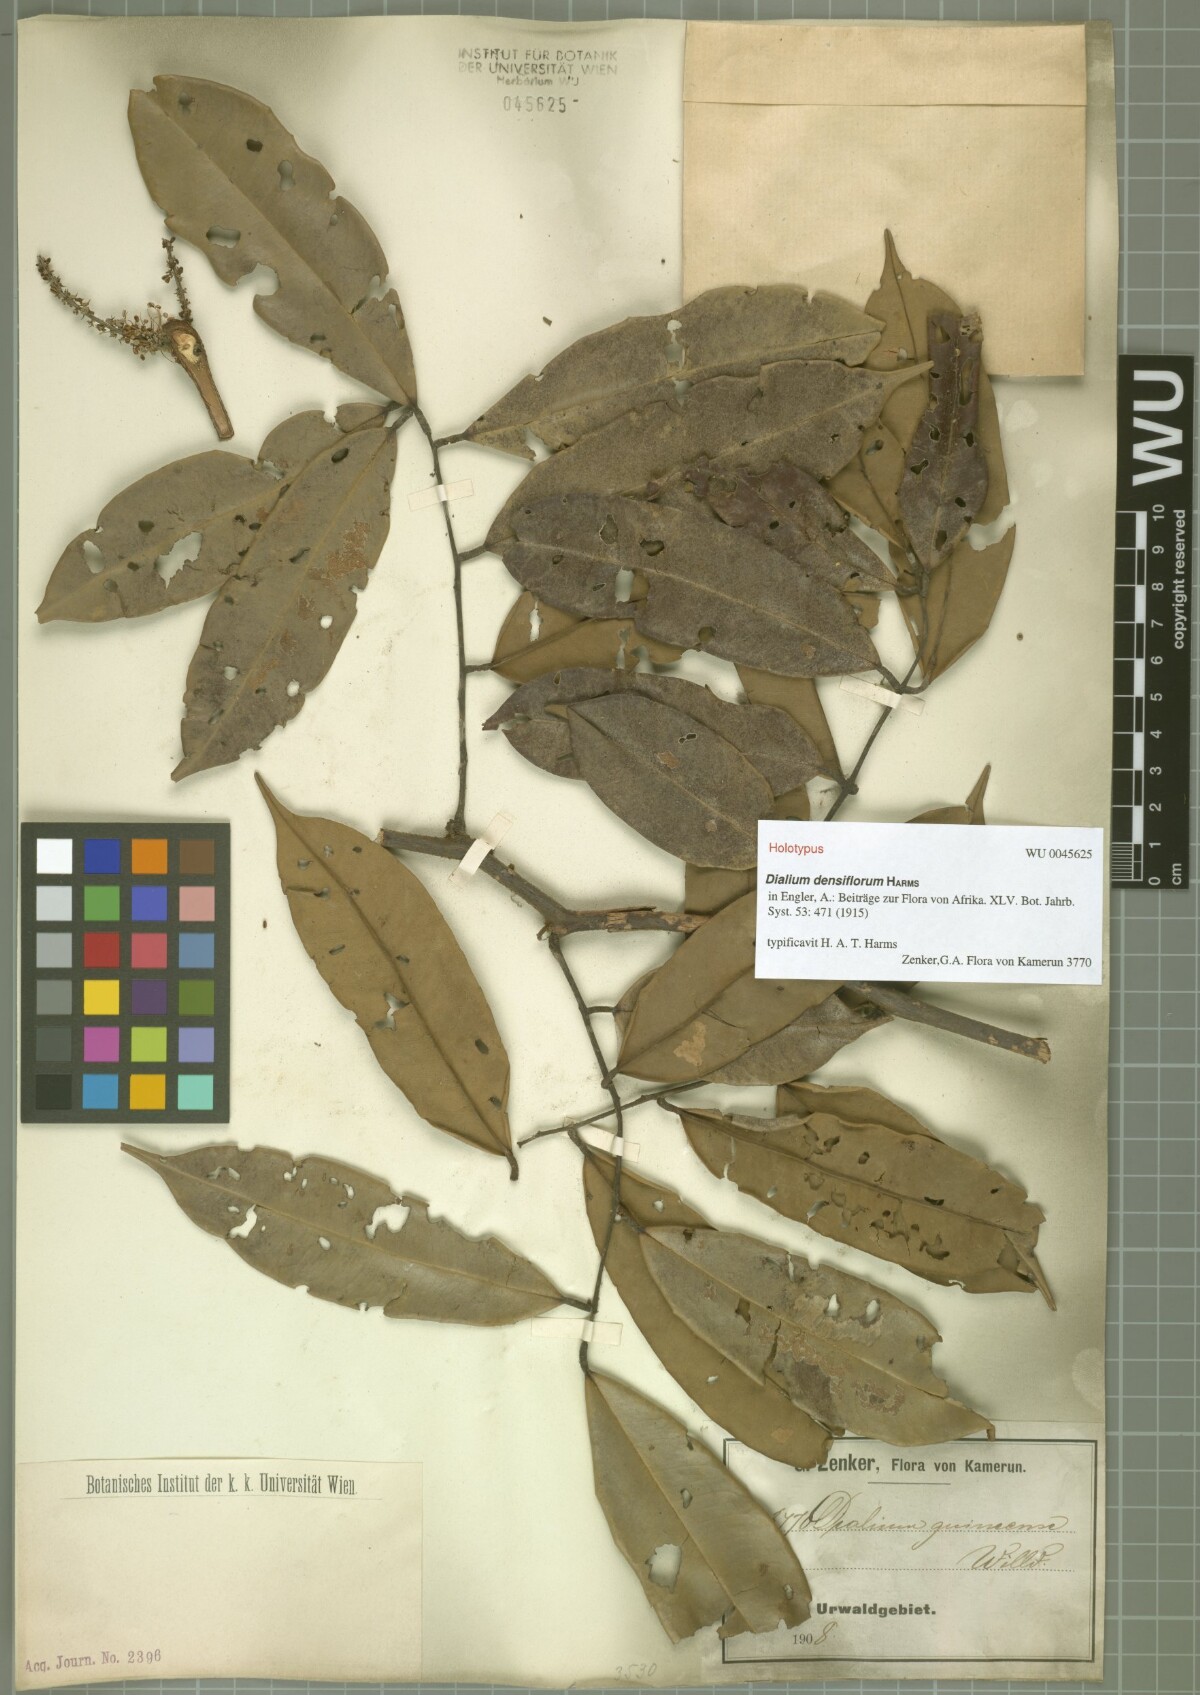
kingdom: Plantae
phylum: Tracheophyta
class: Magnoliopsida
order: Fabales
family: Fabaceae
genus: Dialium
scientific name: Dialium zenkeri
